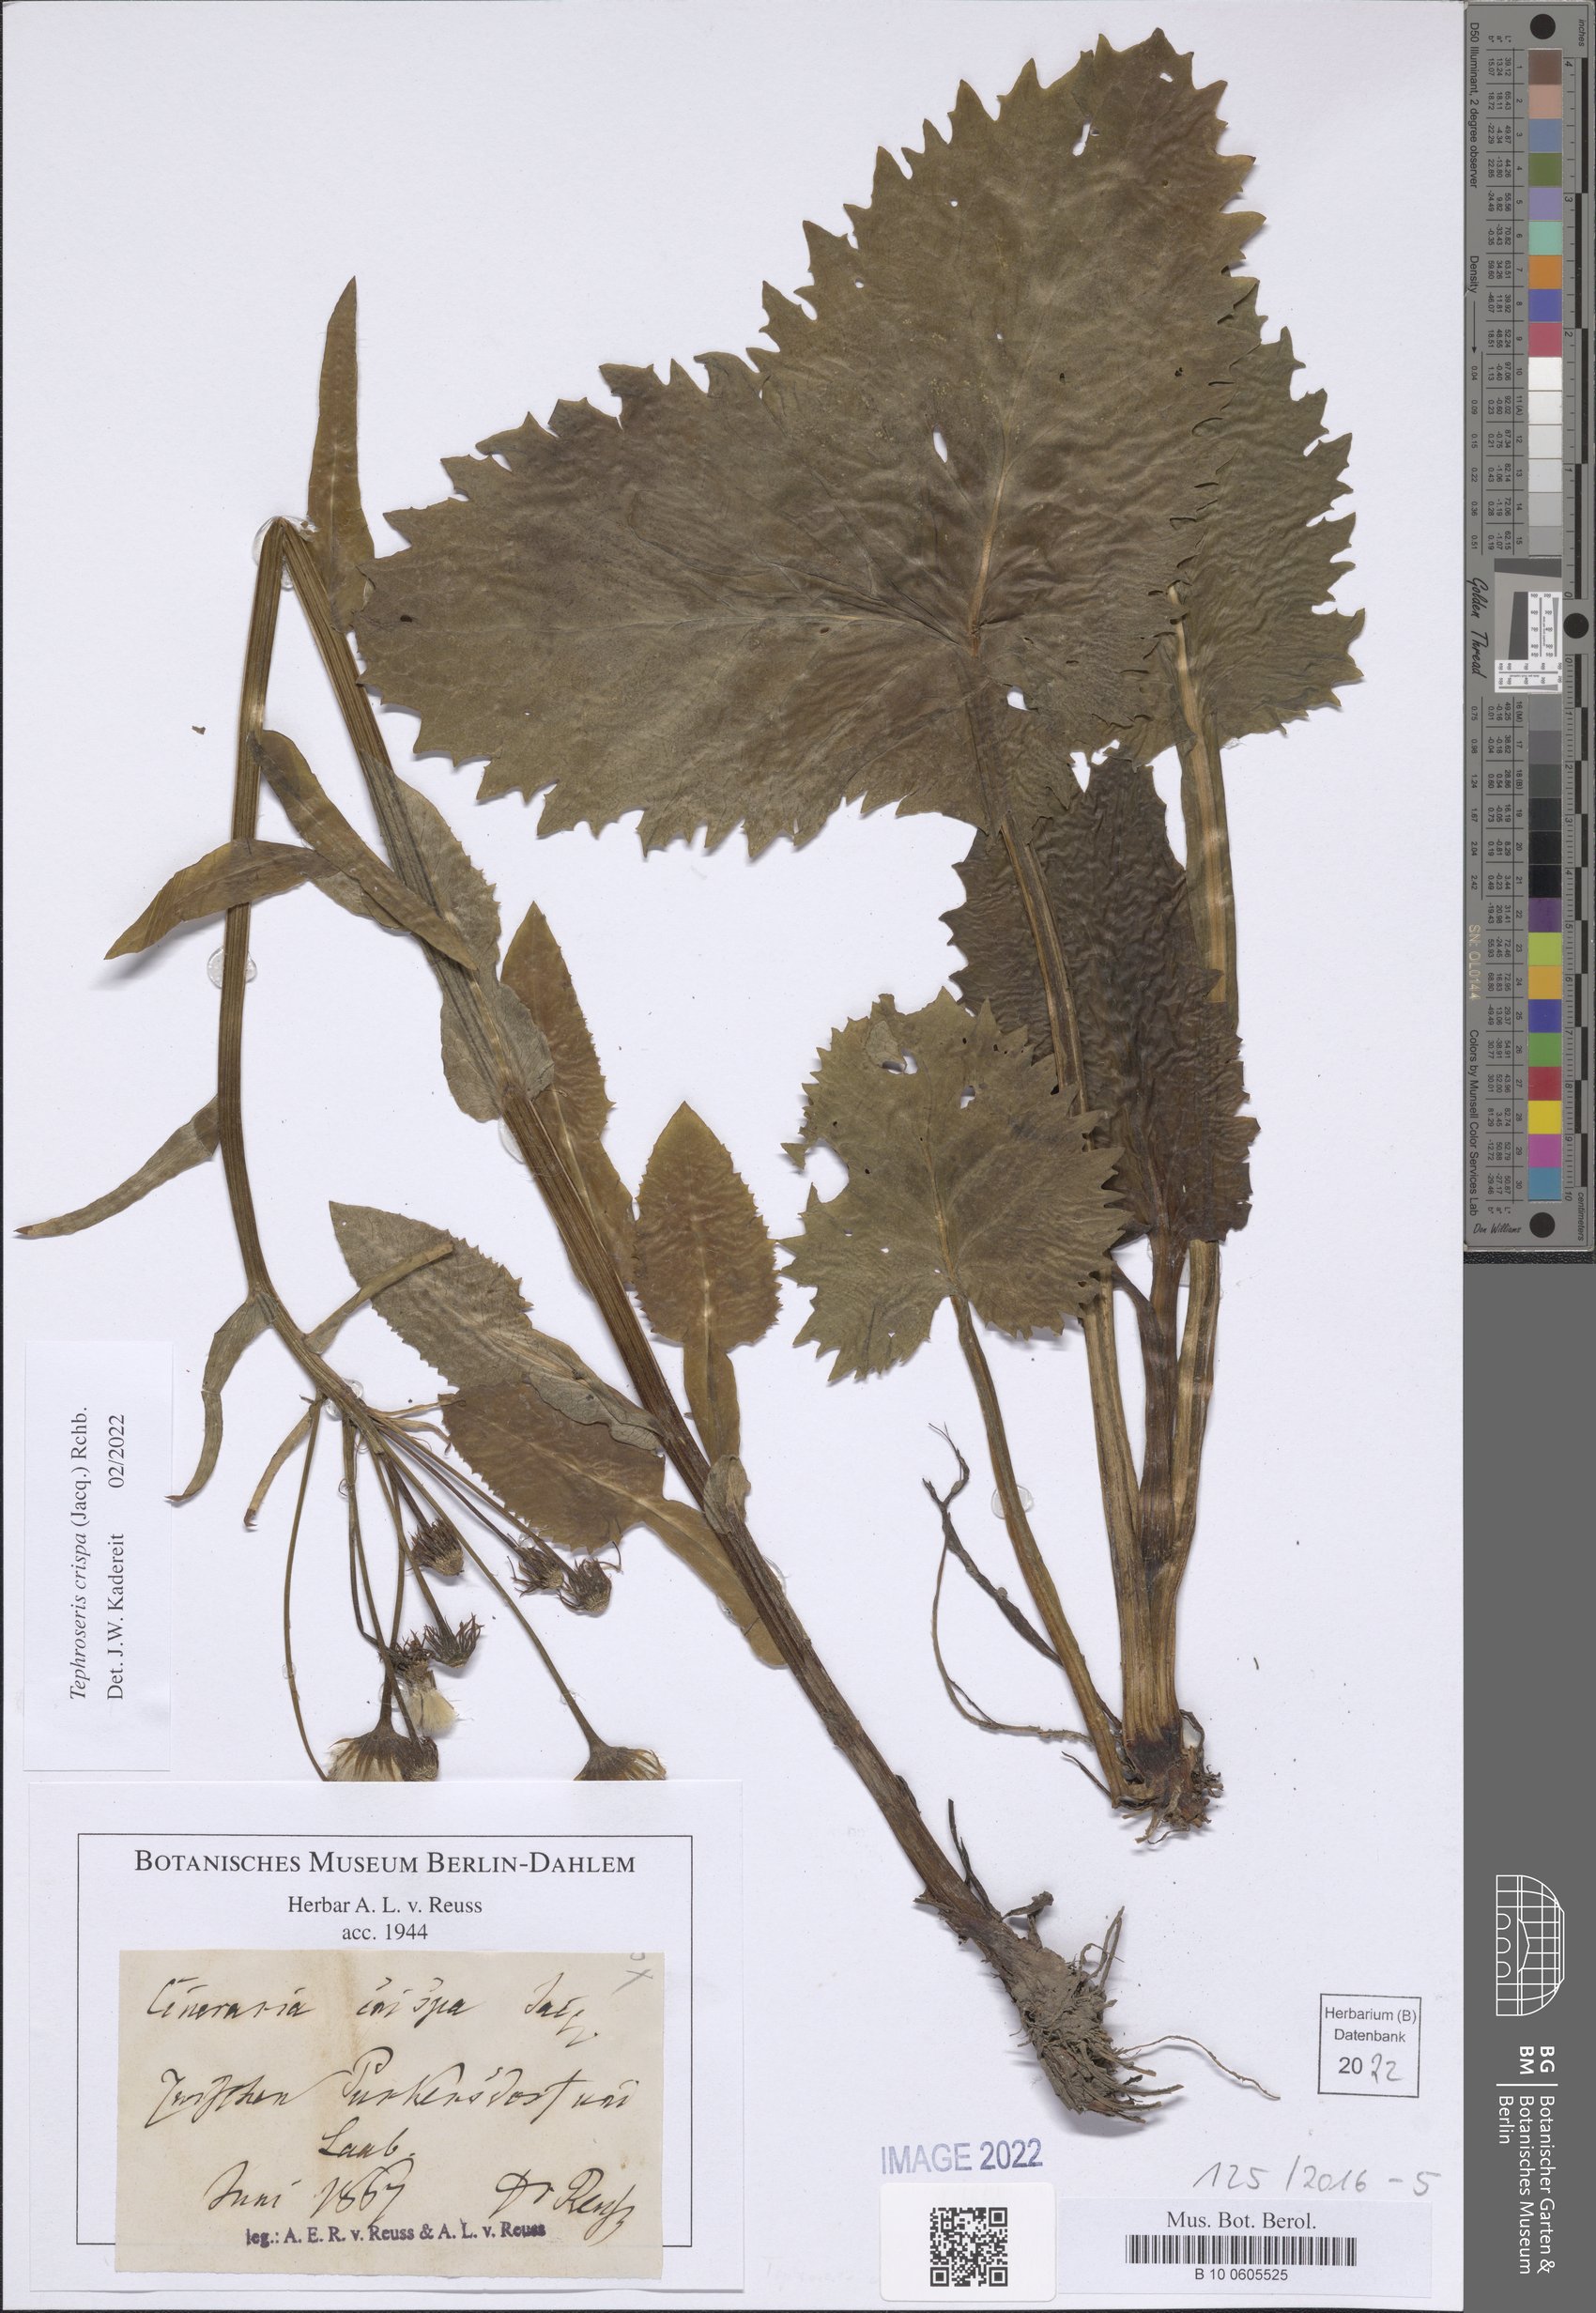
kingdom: Plantae
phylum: Tracheophyta
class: Magnoliopsida
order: Asterales
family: Asteraceae
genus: Tephroseris
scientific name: Tephroseris crispa
